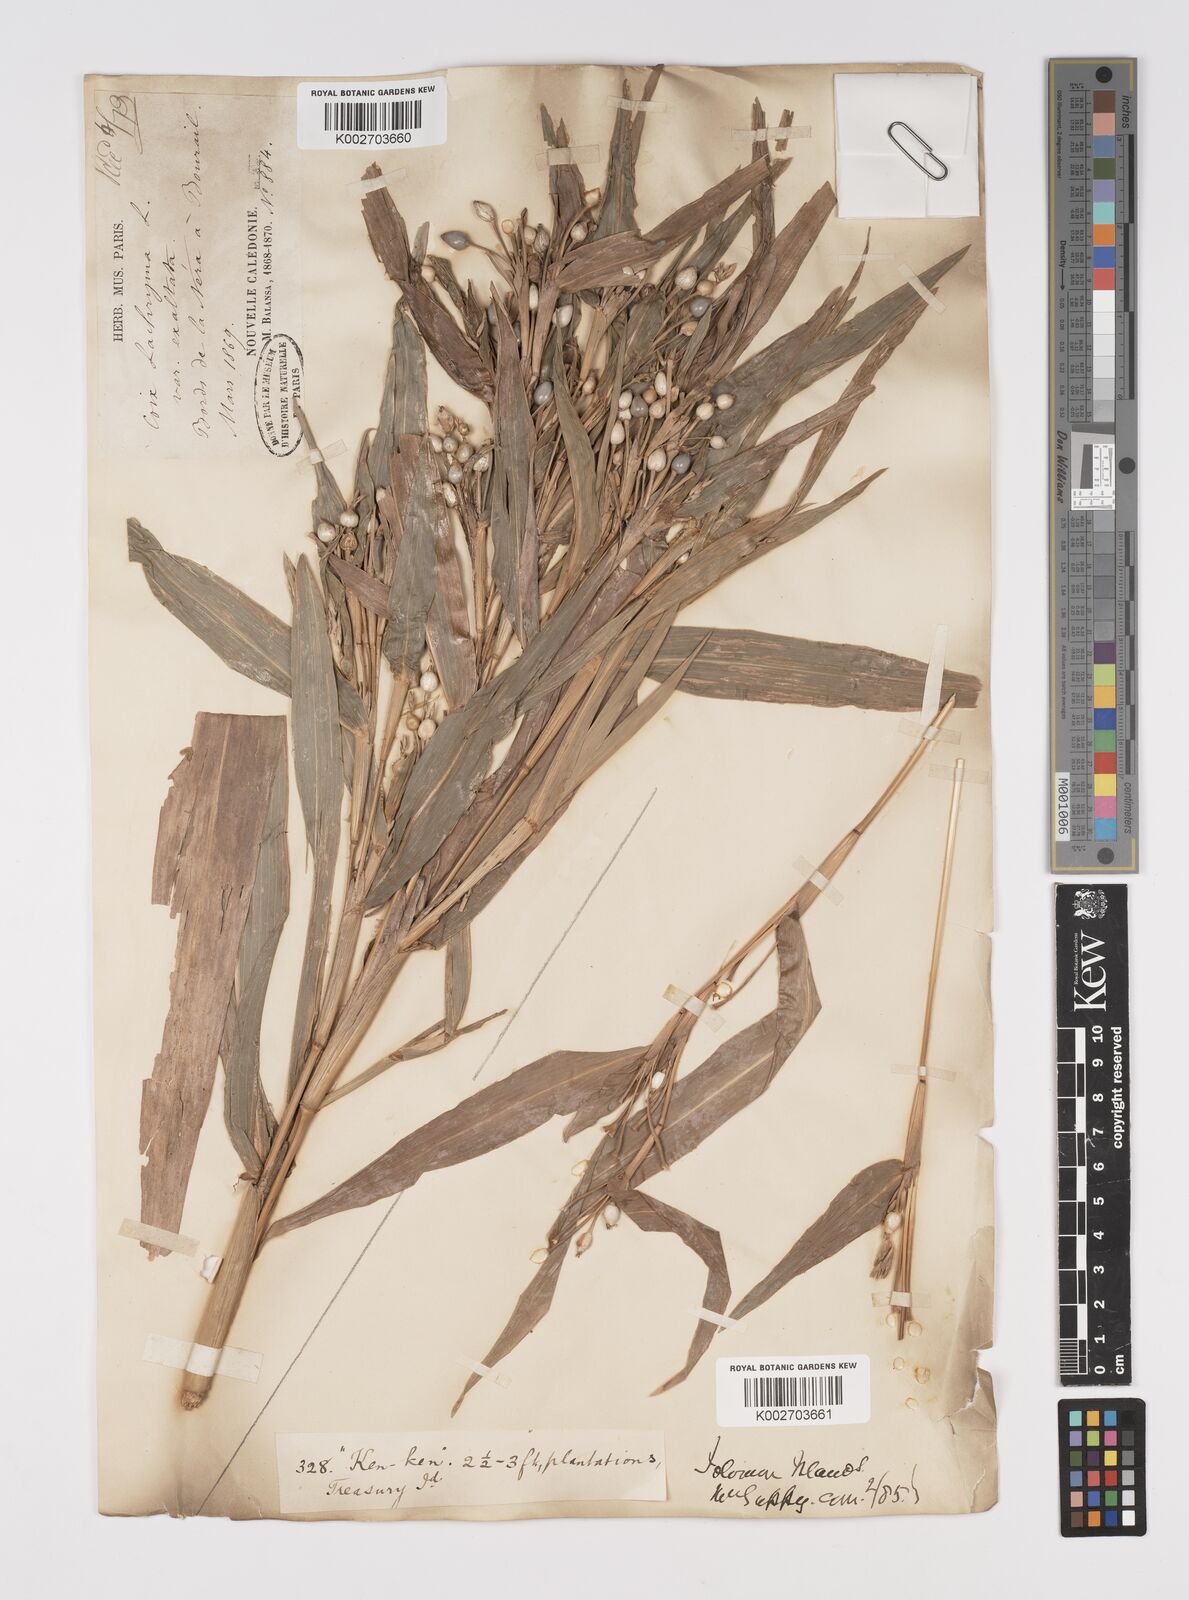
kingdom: Plantae
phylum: Tracheophyta
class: Liliopsida
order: Poales
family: Poaceae
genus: Coix
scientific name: Coix lacryma-jobi
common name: Job's tears
